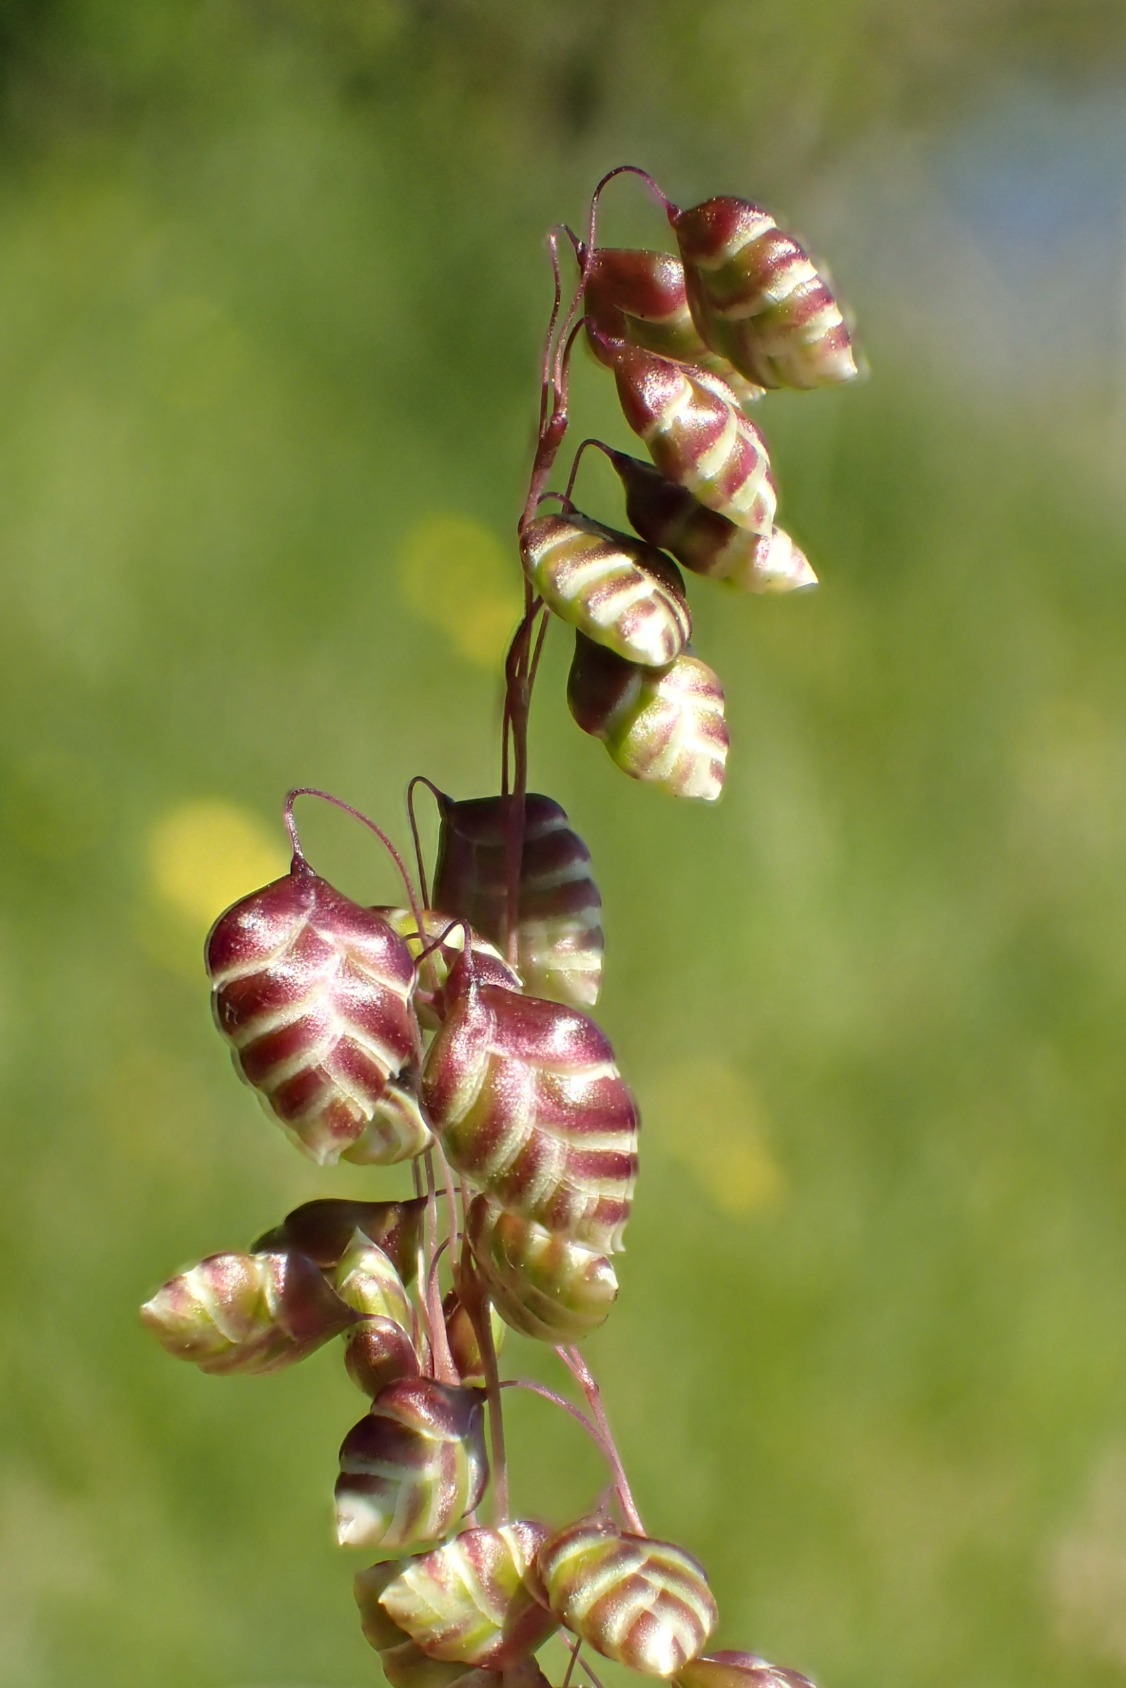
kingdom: Plantae
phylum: Tracheophyta
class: Liliopsida
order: Poales
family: Poaceae
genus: Briza
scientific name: Briza media
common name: Hjertegræs
